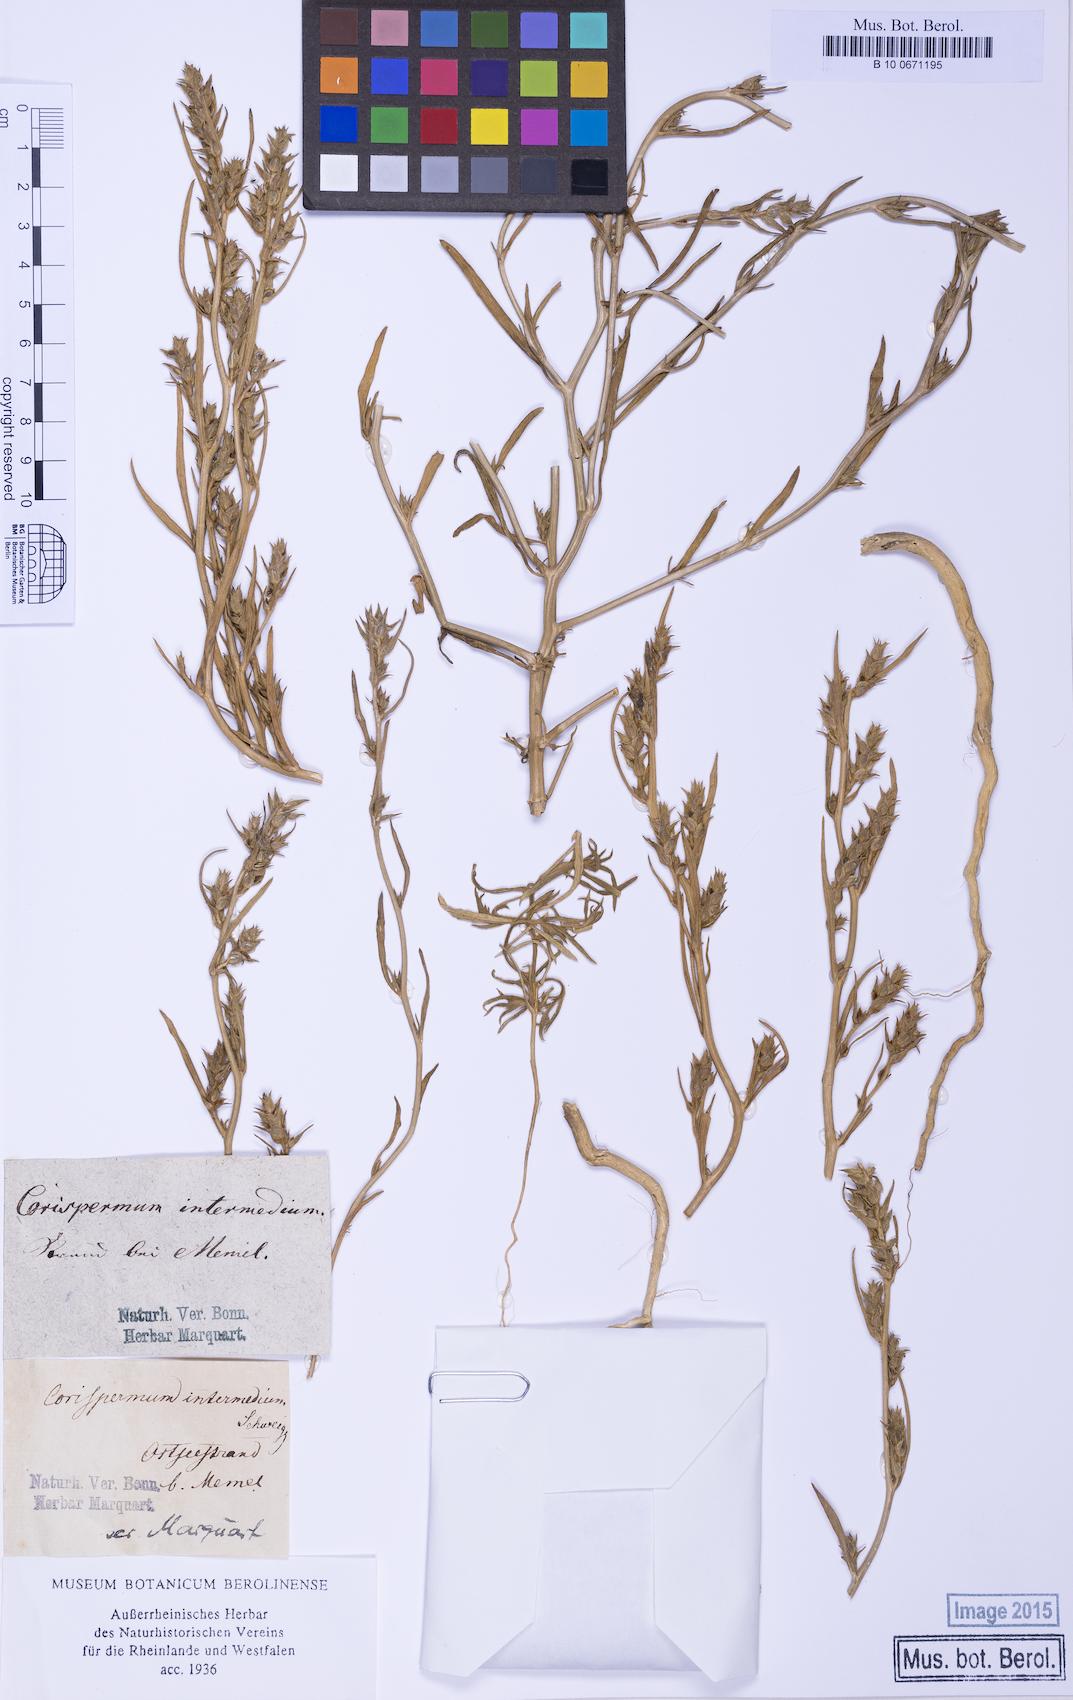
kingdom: Plantae
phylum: Tracheophyta
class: Magnoliopsida
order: Caryophyllales
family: Amaranthaceae
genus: Corispermum
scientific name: Corispermum intermedium
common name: Hyssop-leaved tickseed
